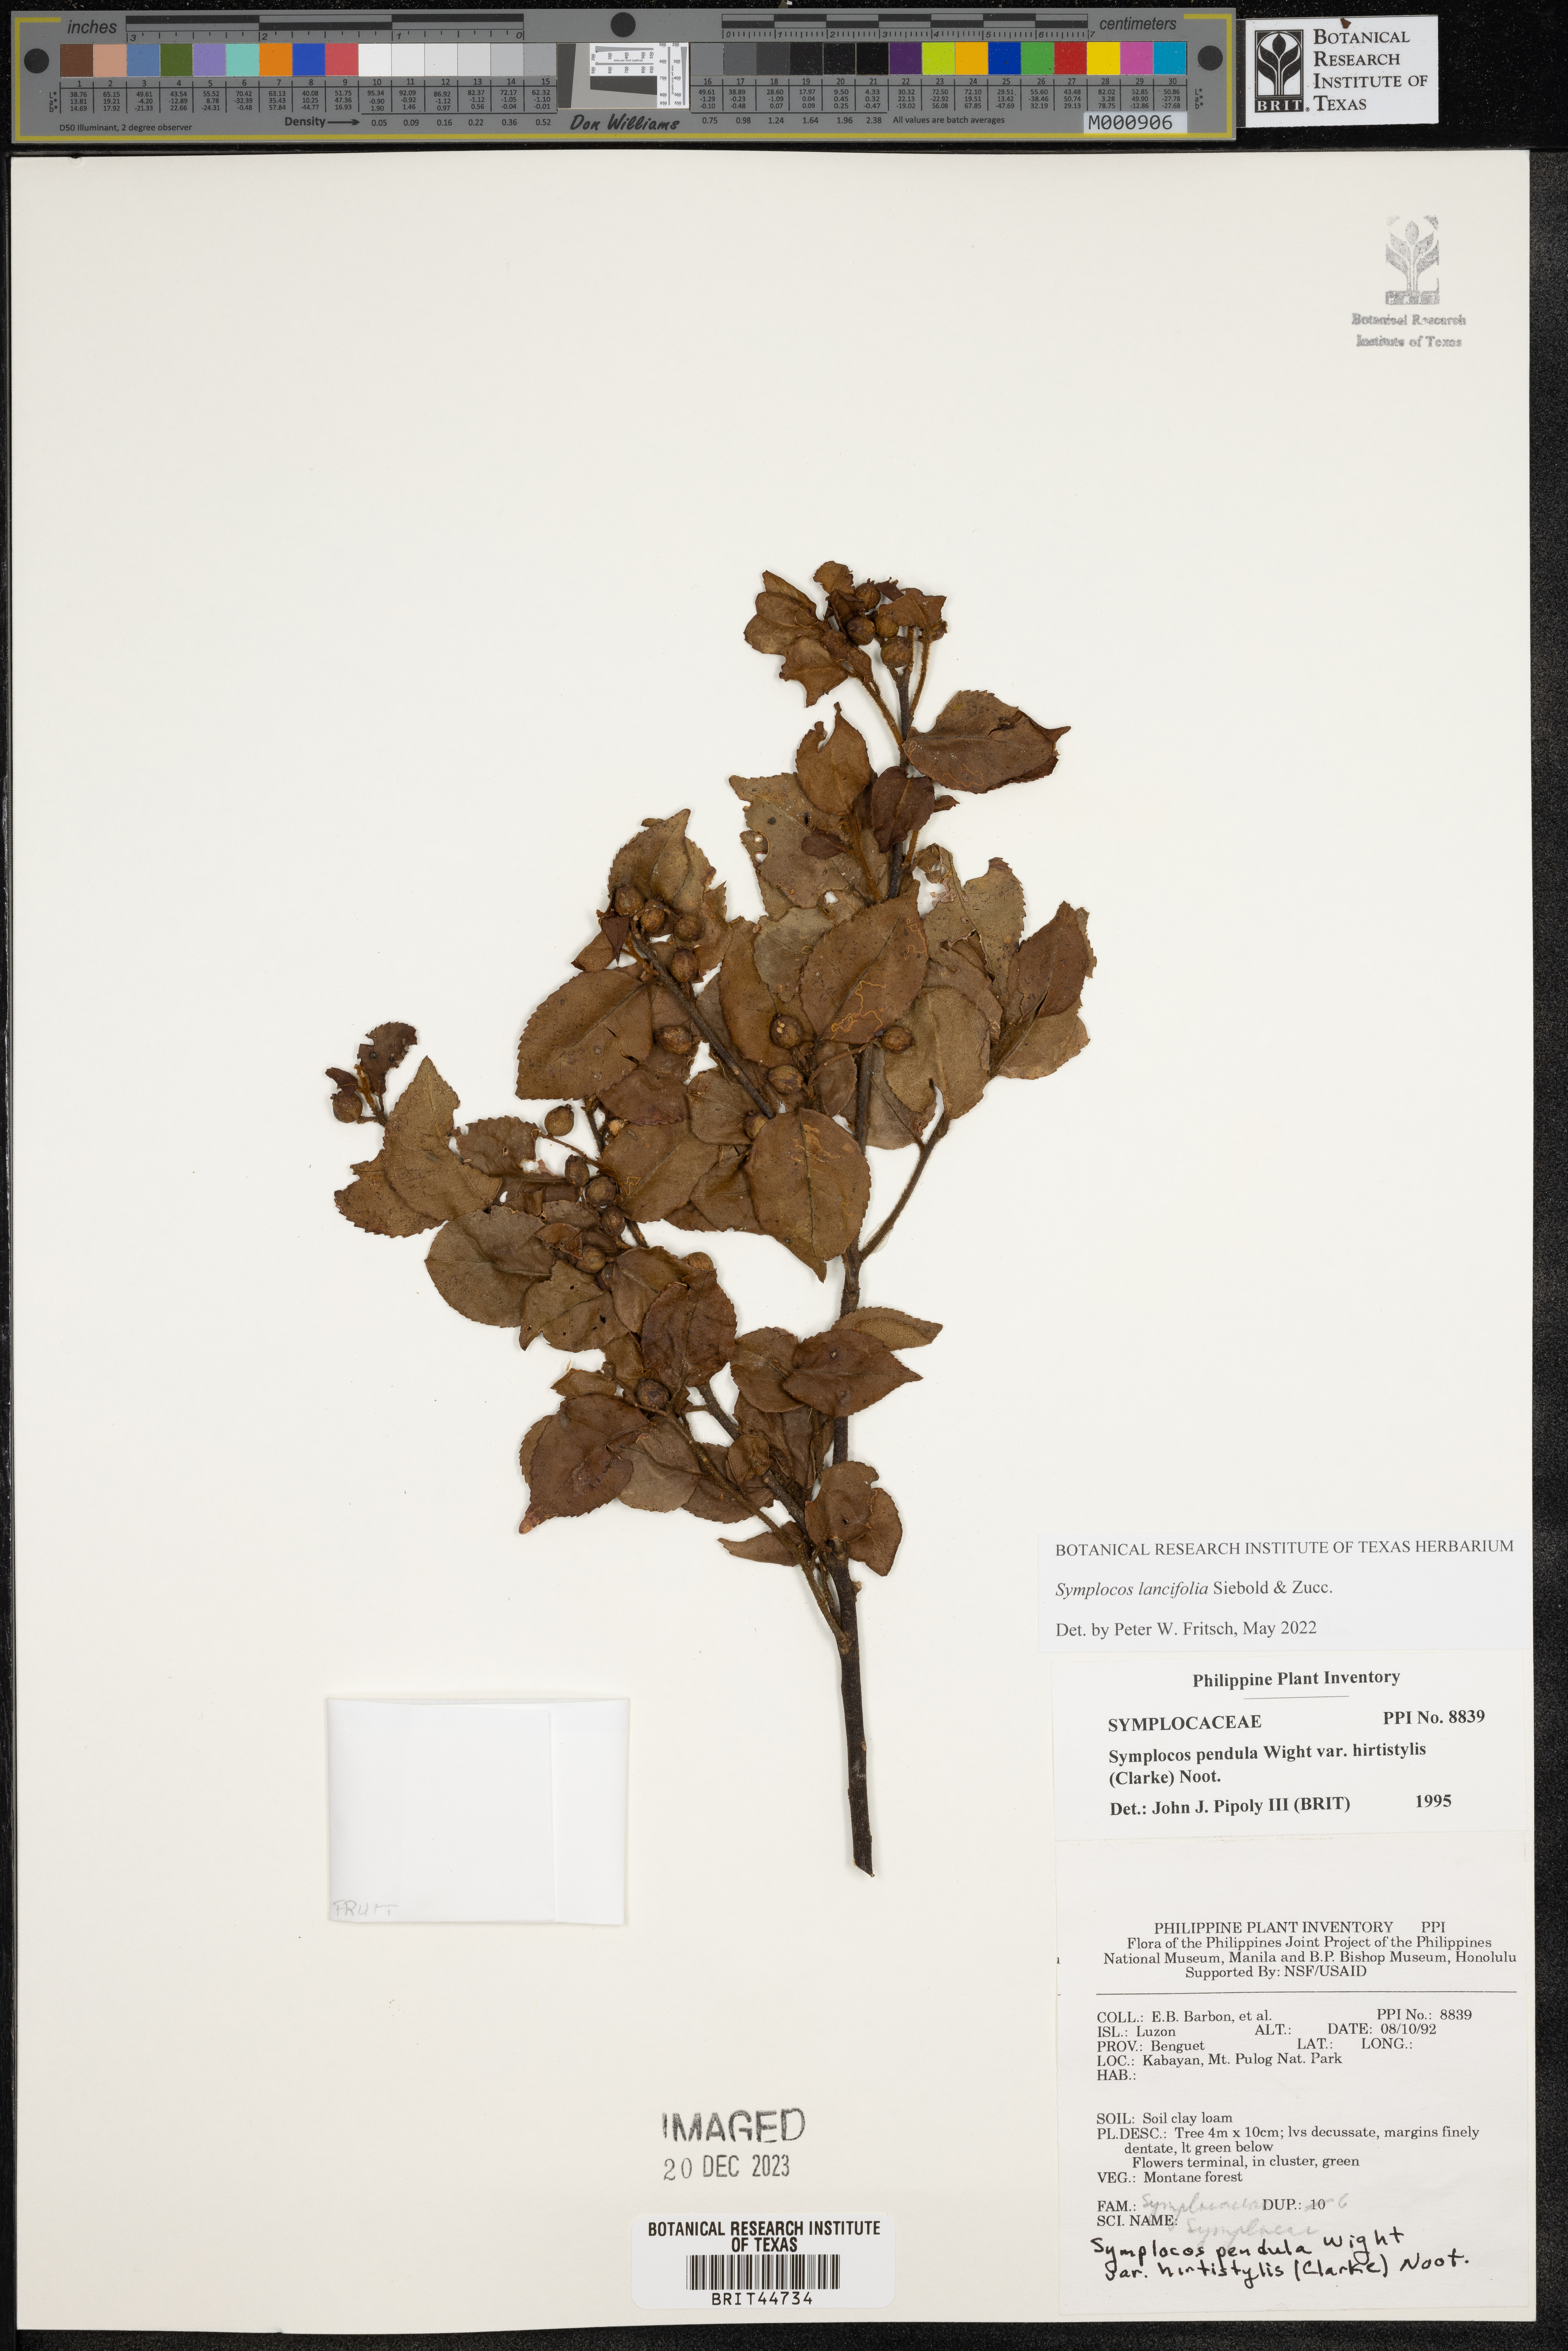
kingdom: Plantae
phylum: Tracheophyta
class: Magnoliopsida
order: Ericales
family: Symplocaceae
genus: Symplocos
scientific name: Symplocos pendula
